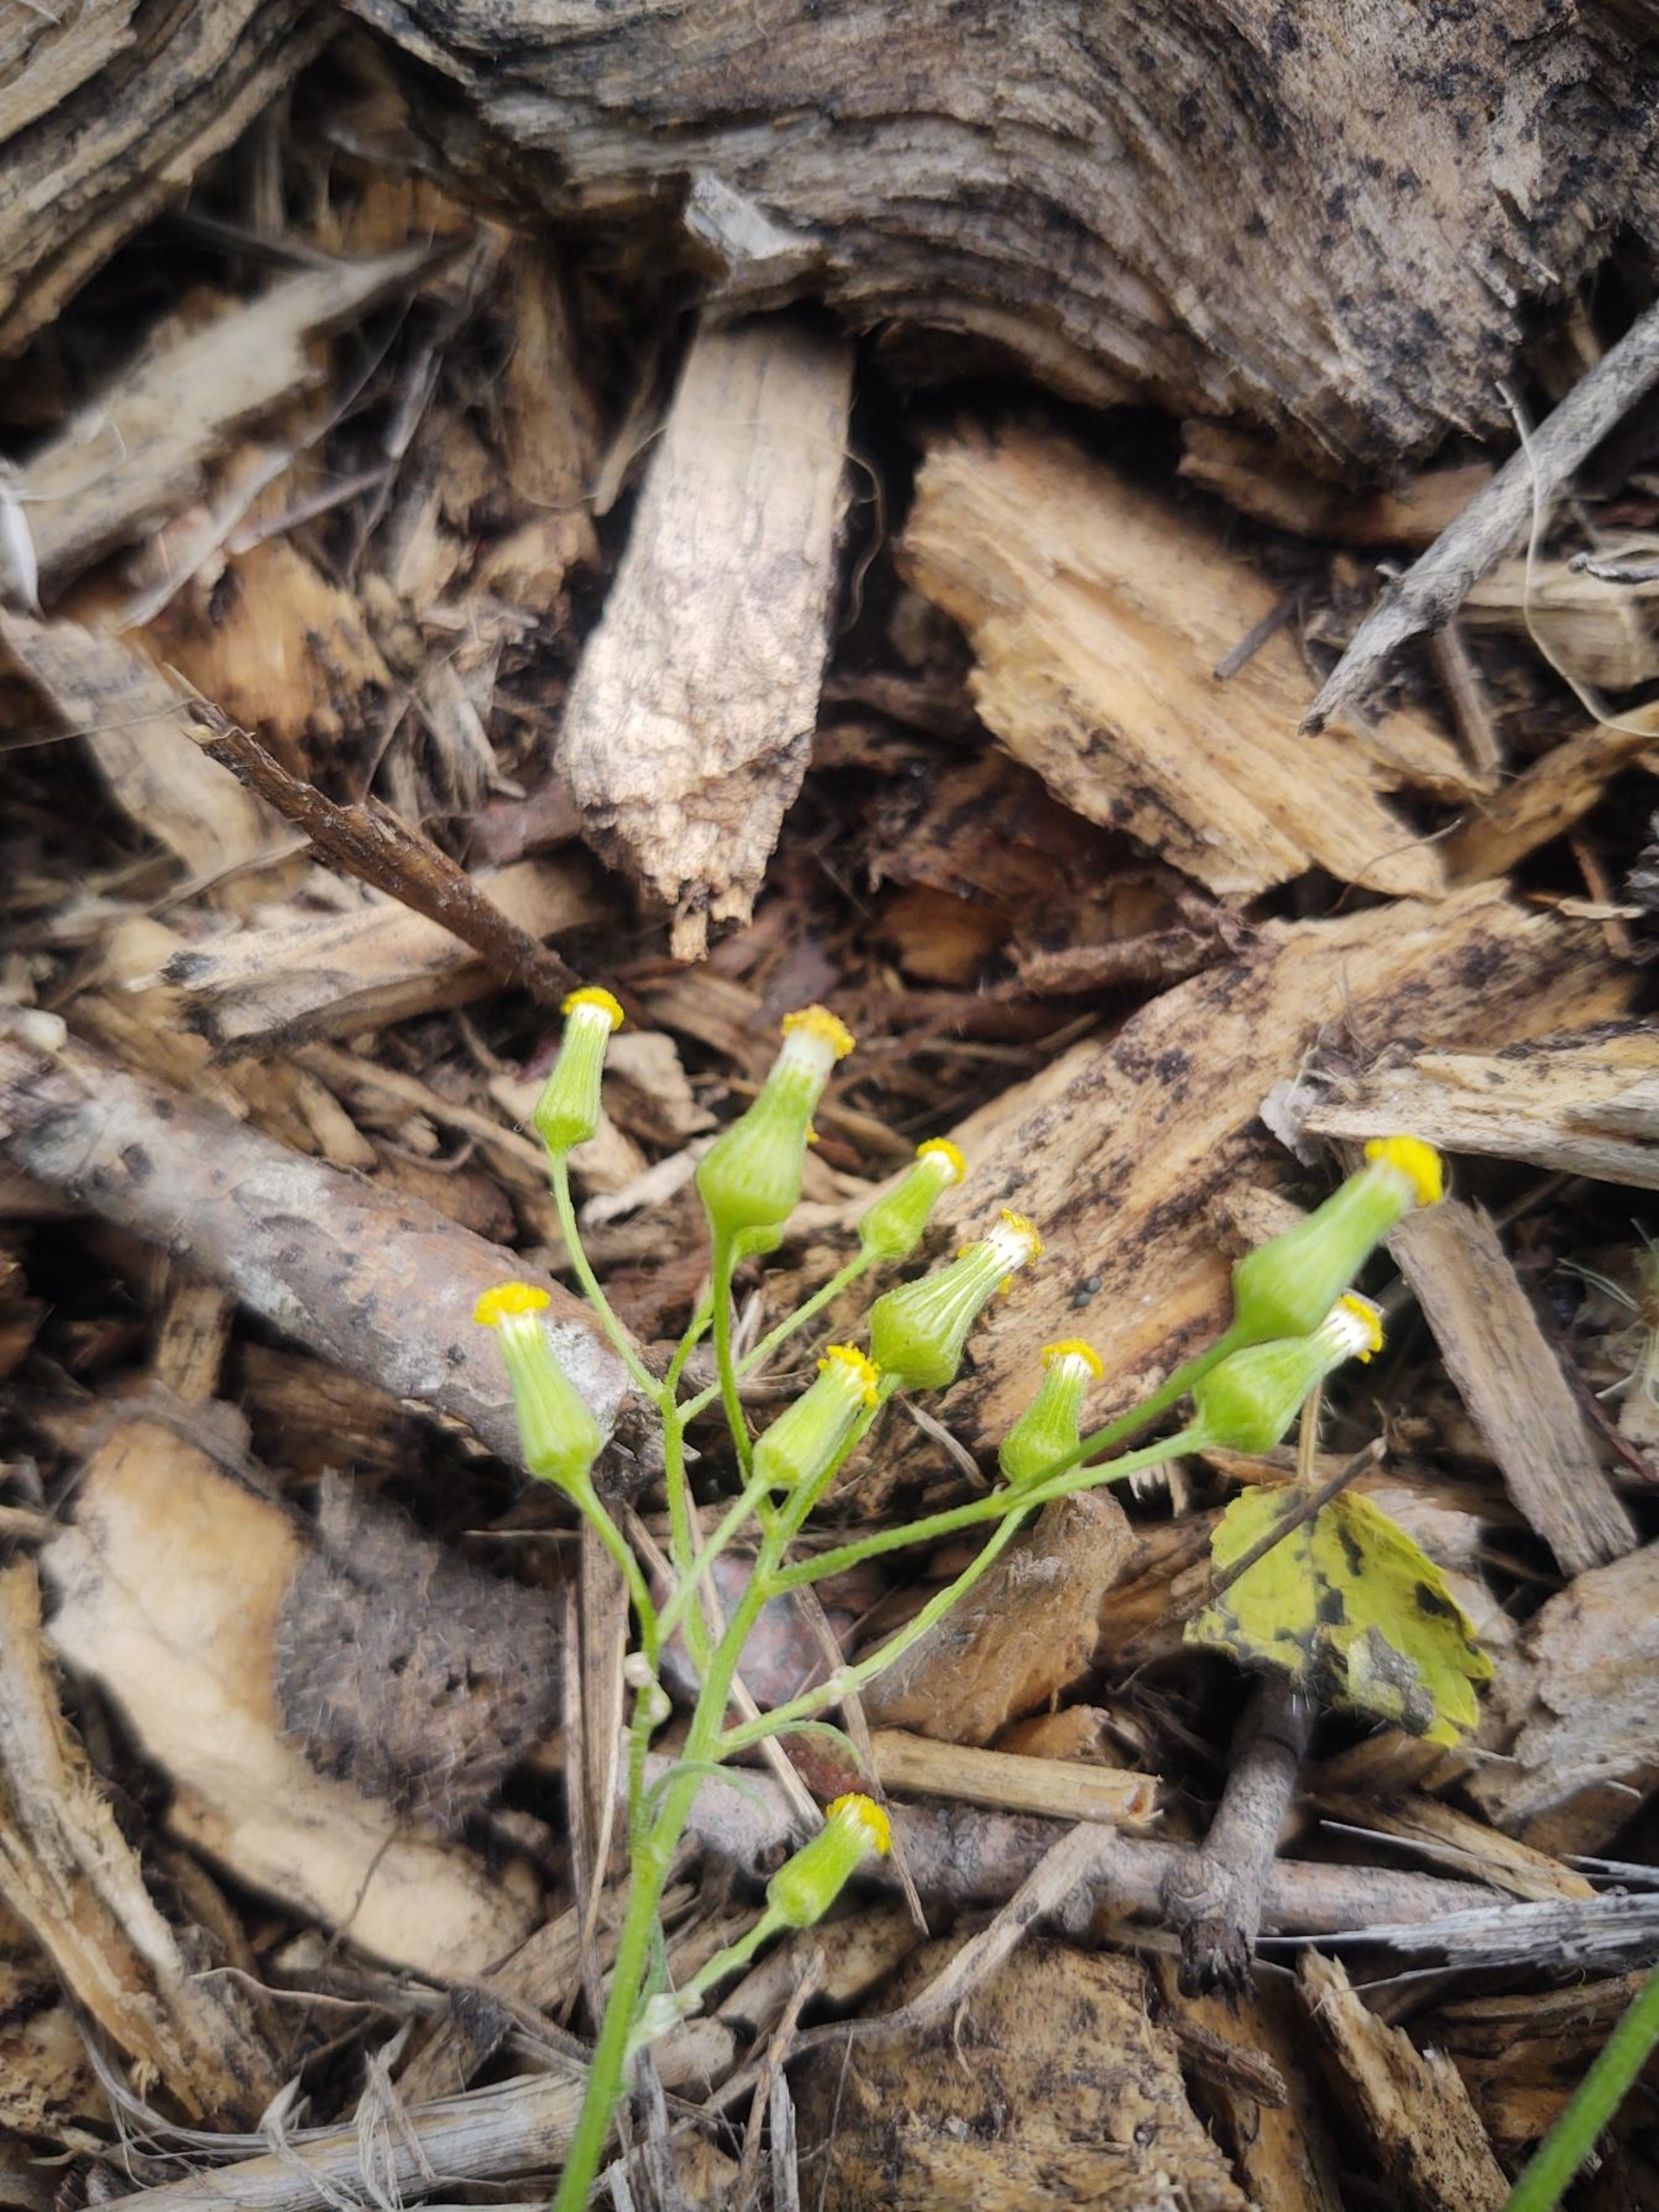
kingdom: Plantae
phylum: Tracheophyta
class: Magnoliopsida
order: Asterales
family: Asteraceae
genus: Senecio
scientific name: Senecio sylvaticus
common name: Skov-brandbæger
